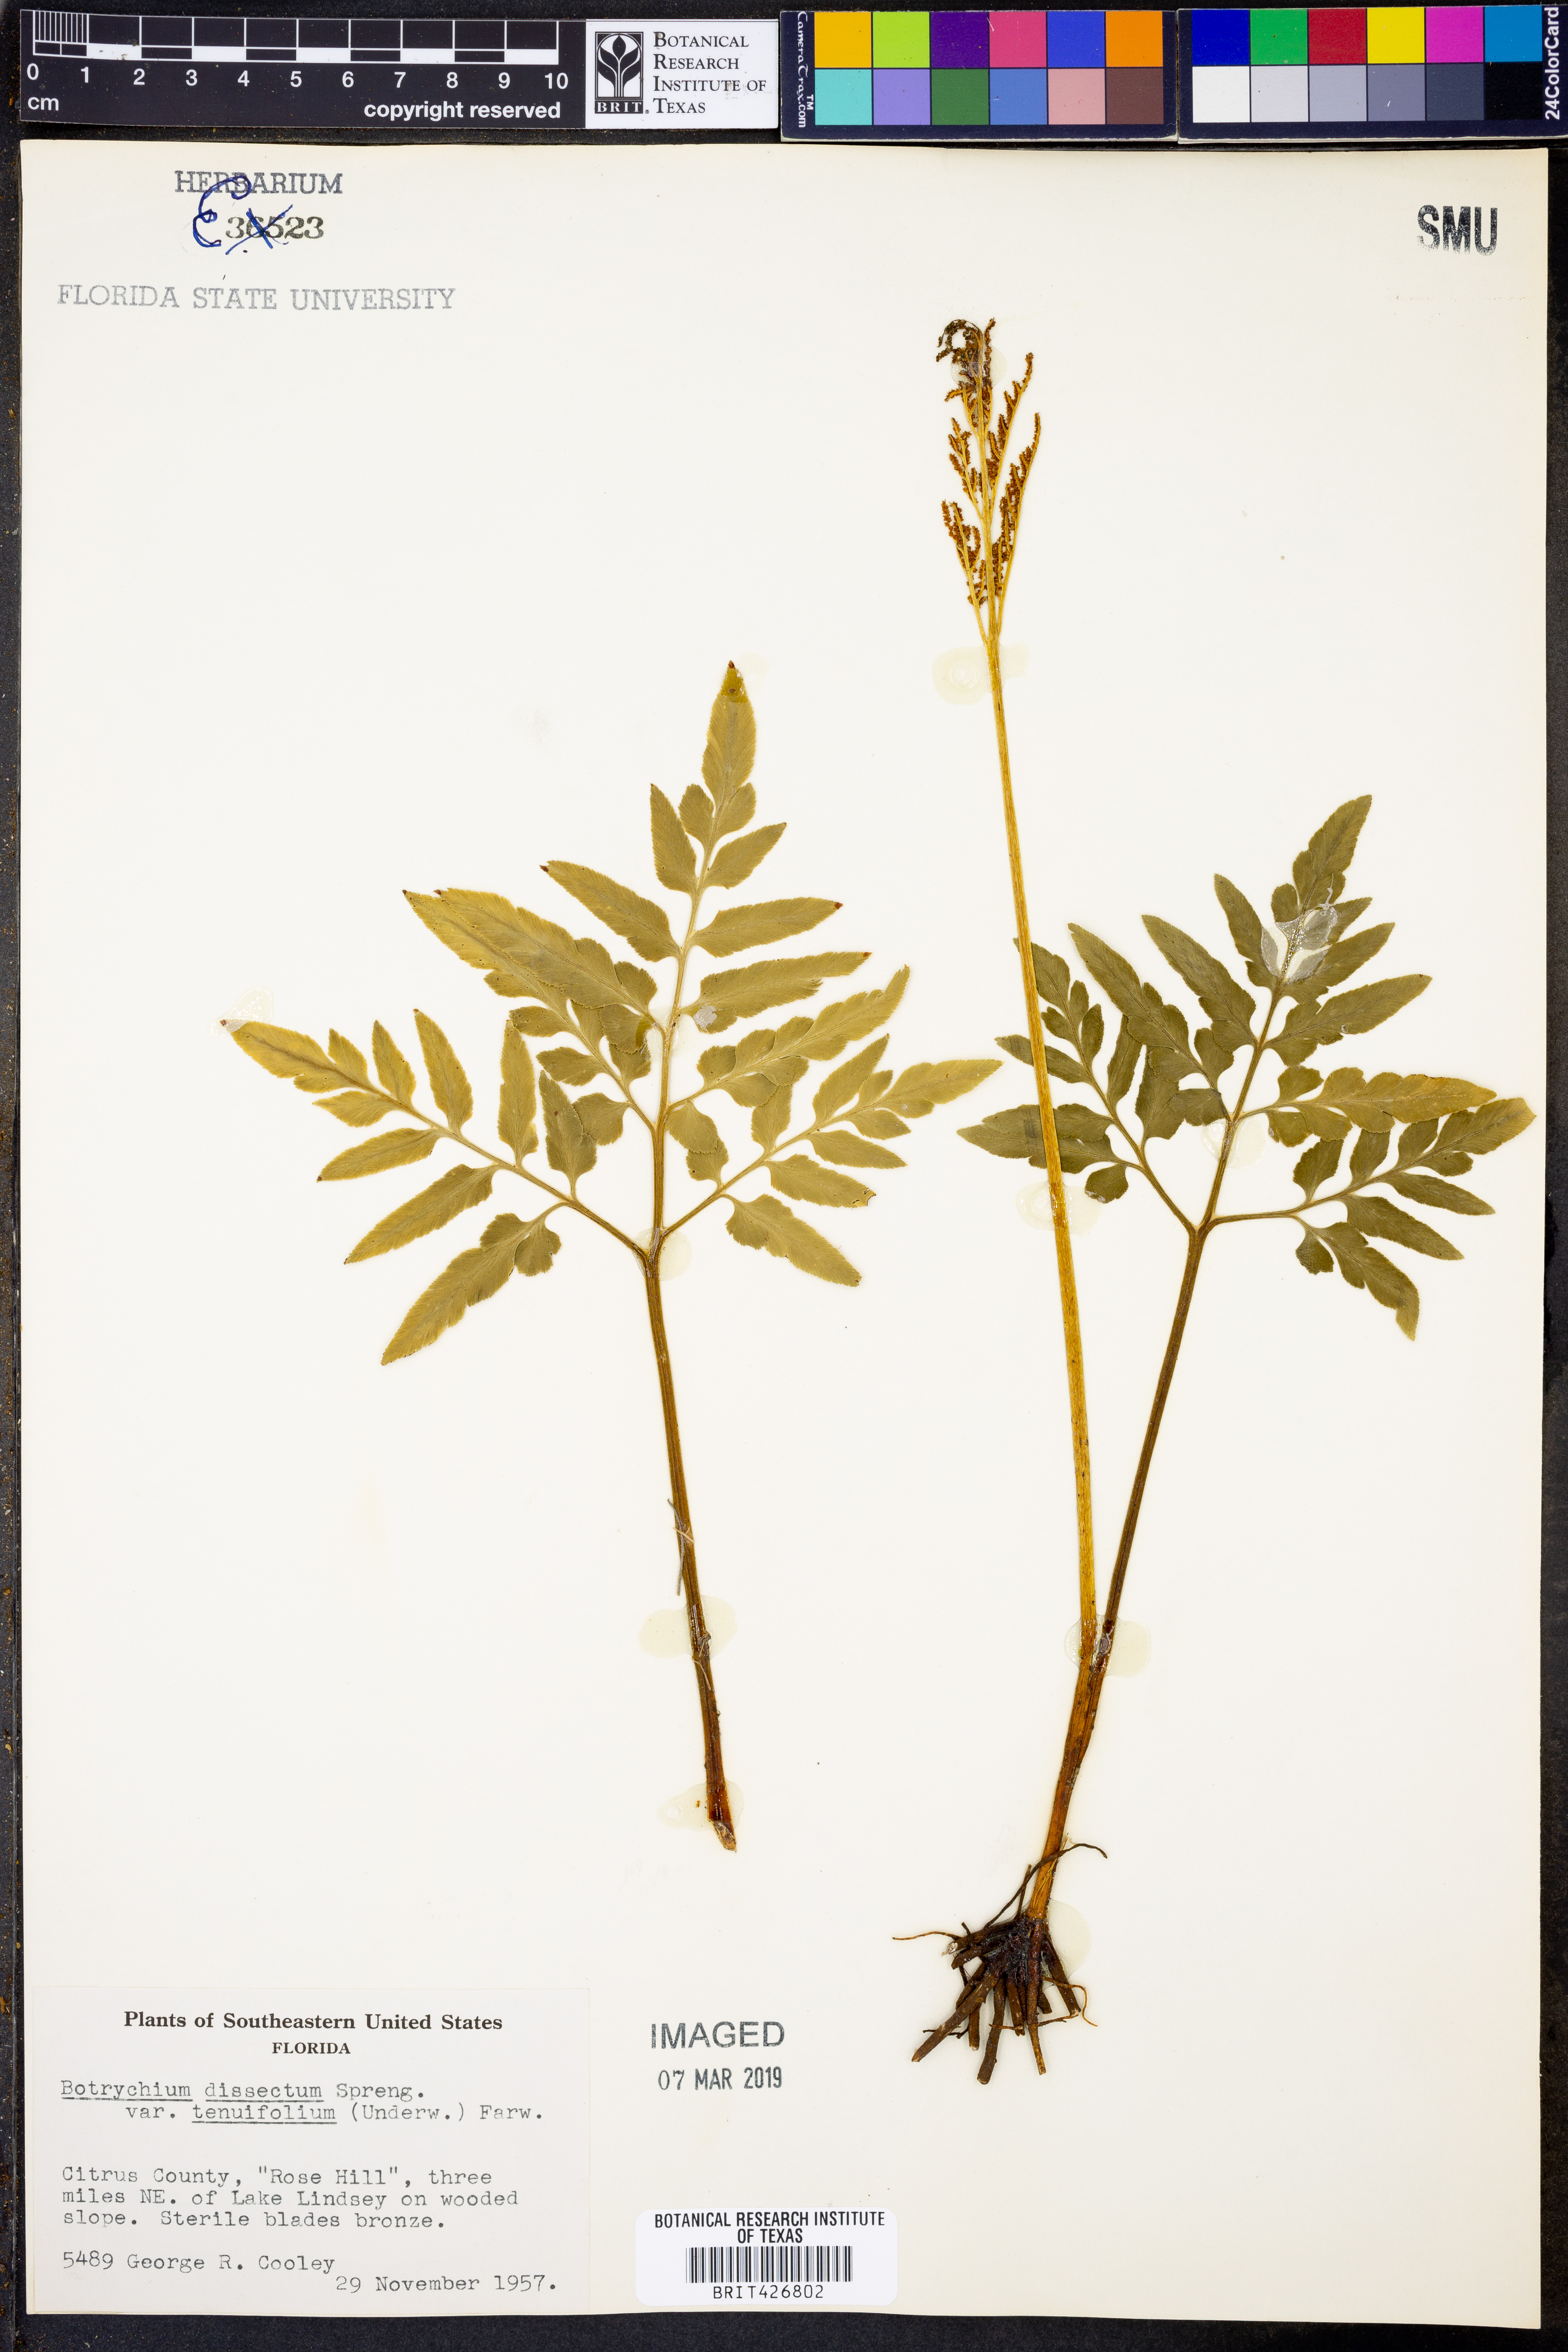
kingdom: Plantae
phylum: Tracheophyta
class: Polypodiopsida
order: Ophioglossales
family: Ophioglossaceae
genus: Sceptridium
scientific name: Sceptridium biternatum
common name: Sparse-lobed grapefern
